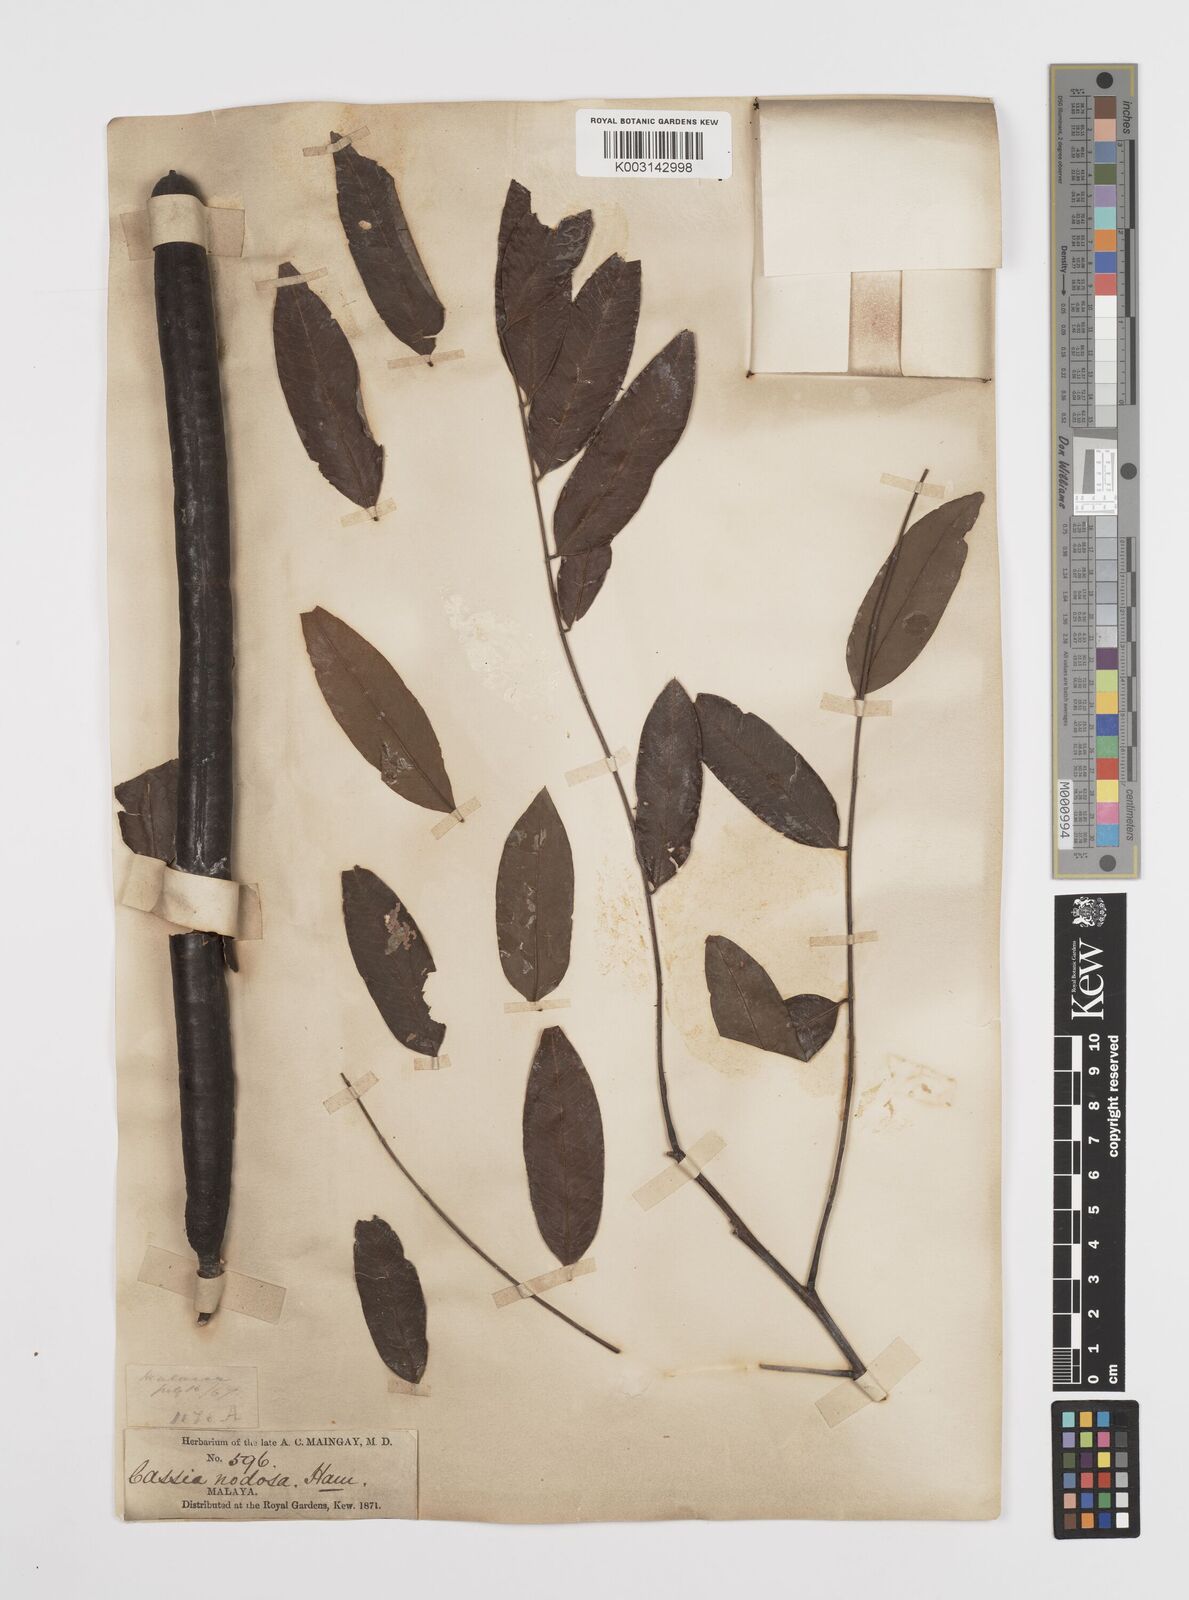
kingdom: Plantae
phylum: Tracheophyta
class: Magnoliopsida
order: Fabales
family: Fabaceae
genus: Cassia
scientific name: Cassia javanica
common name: Apple blossom
